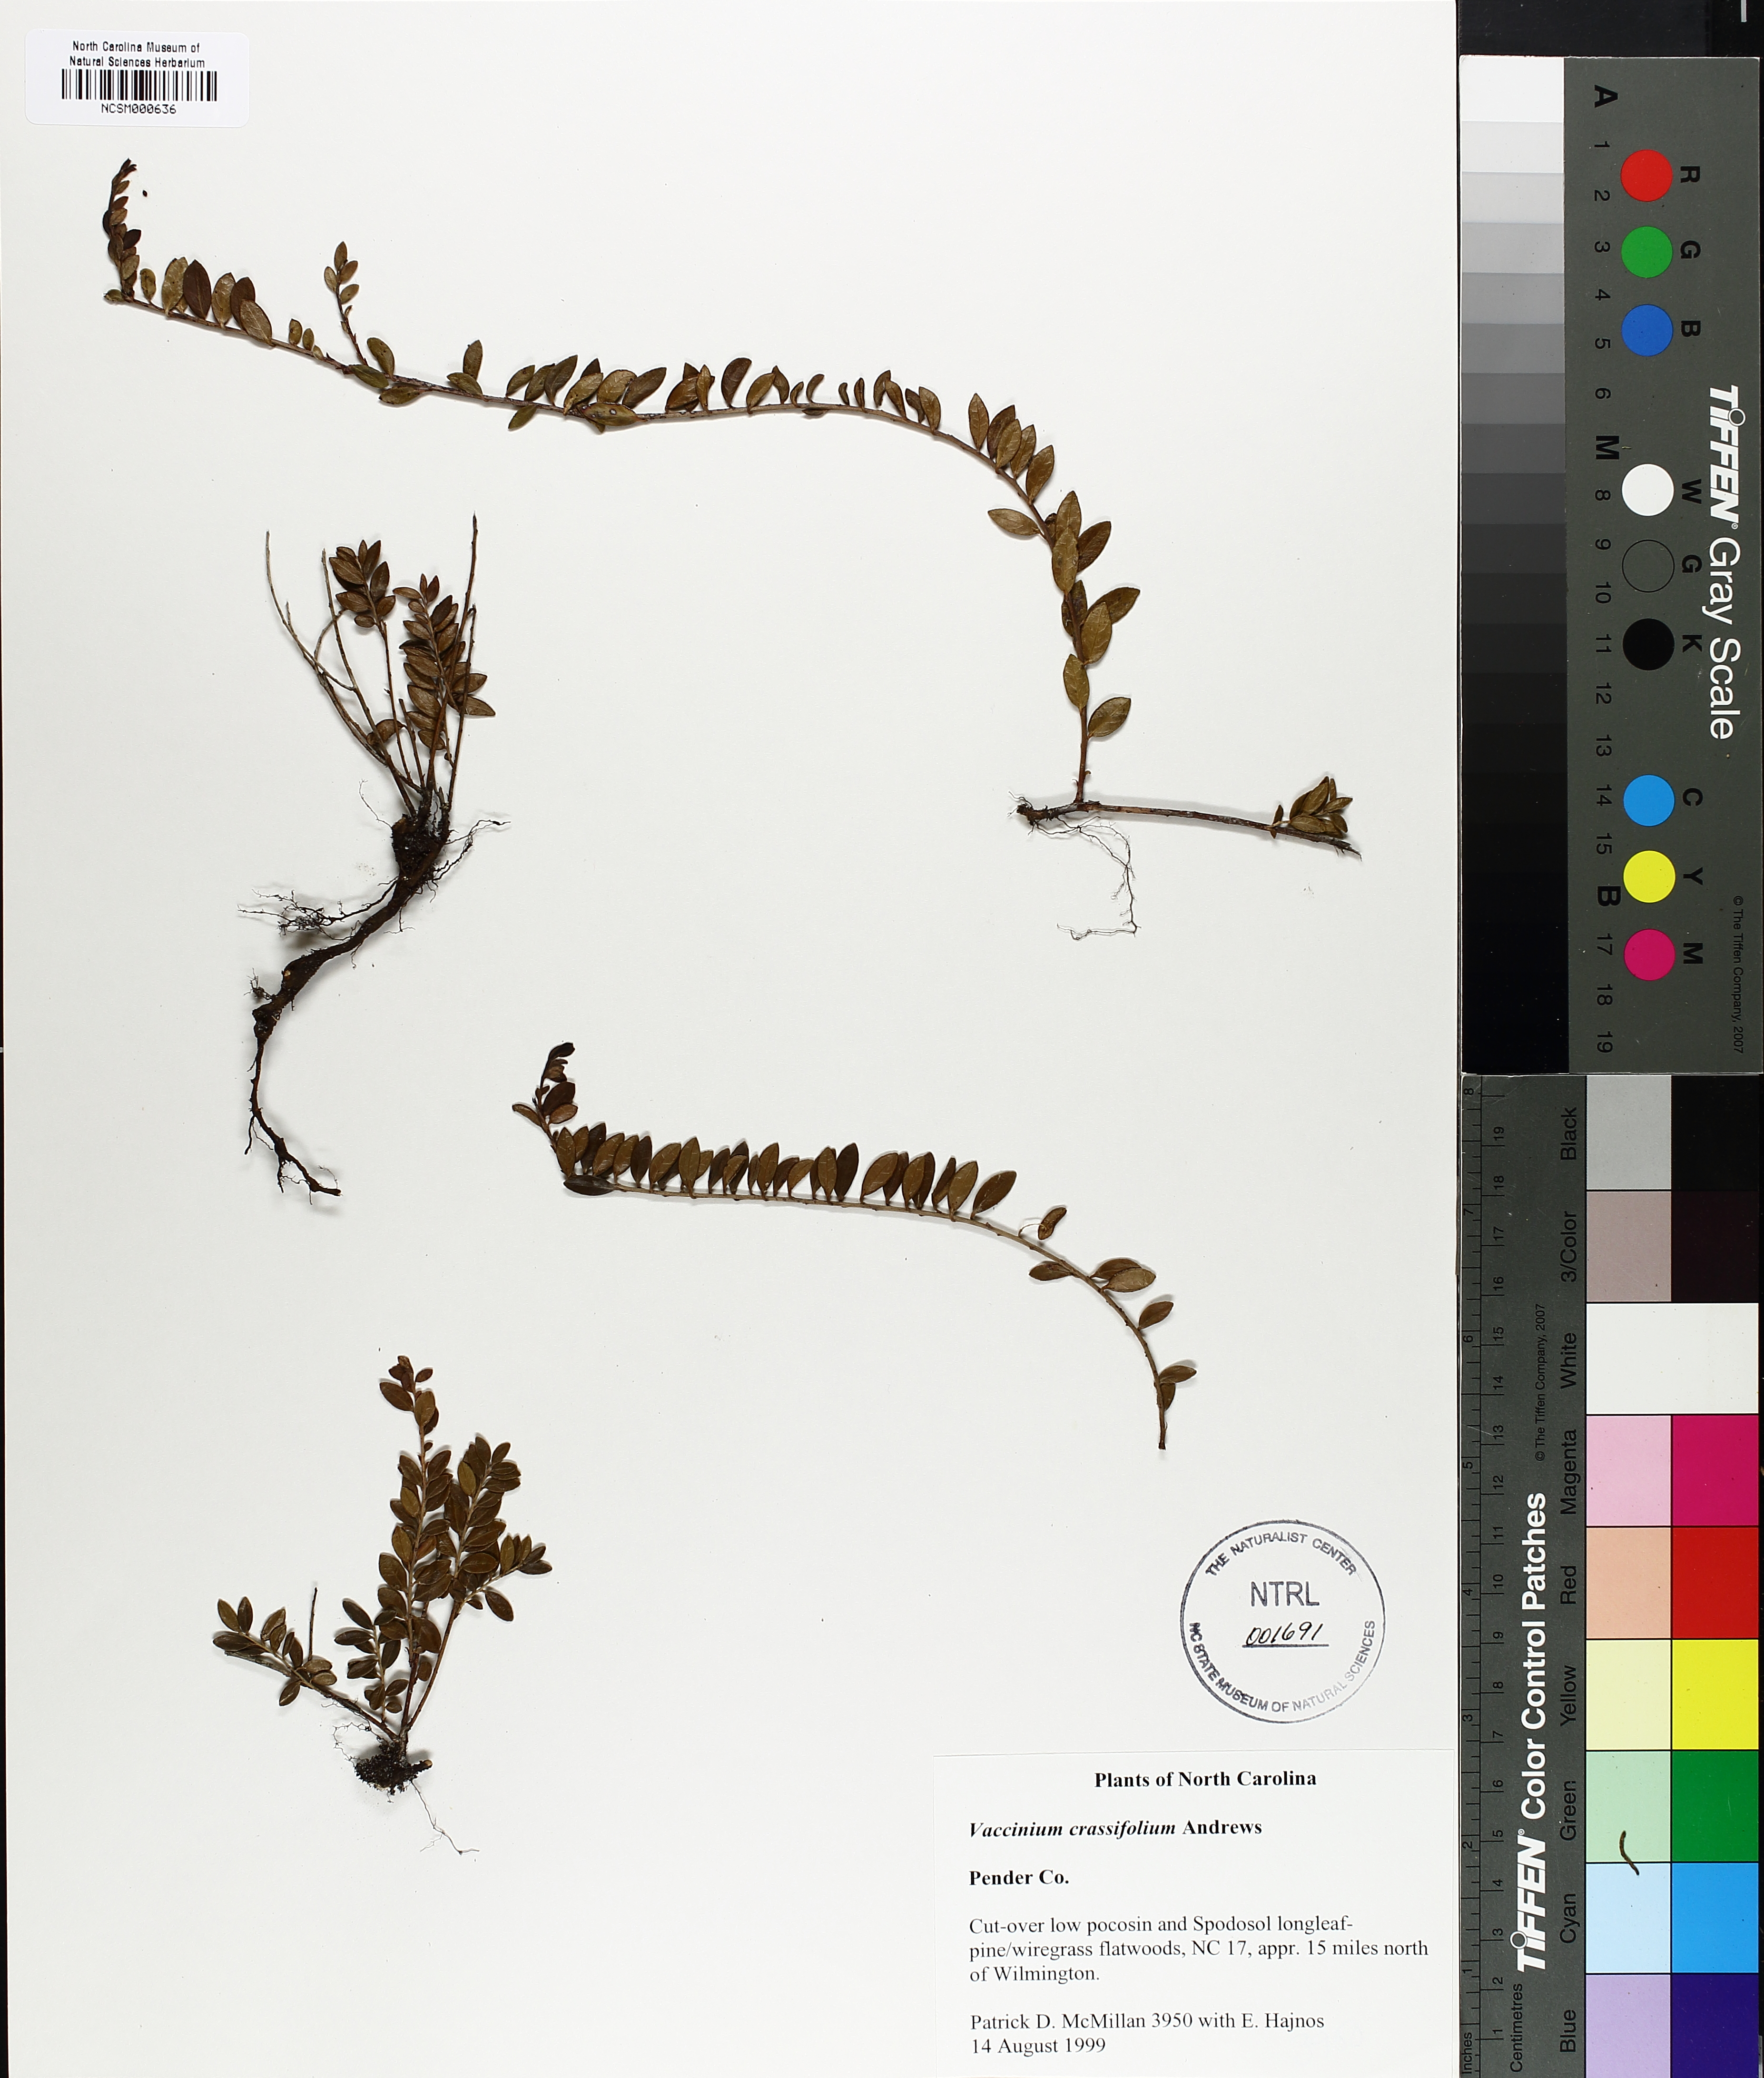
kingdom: Plantae
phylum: Tracheophyta
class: Magnoliopsida
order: Ericales
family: Ericaceae
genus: Vaccinium
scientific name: Vaccinium crassifolium
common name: Creeping blueberry
